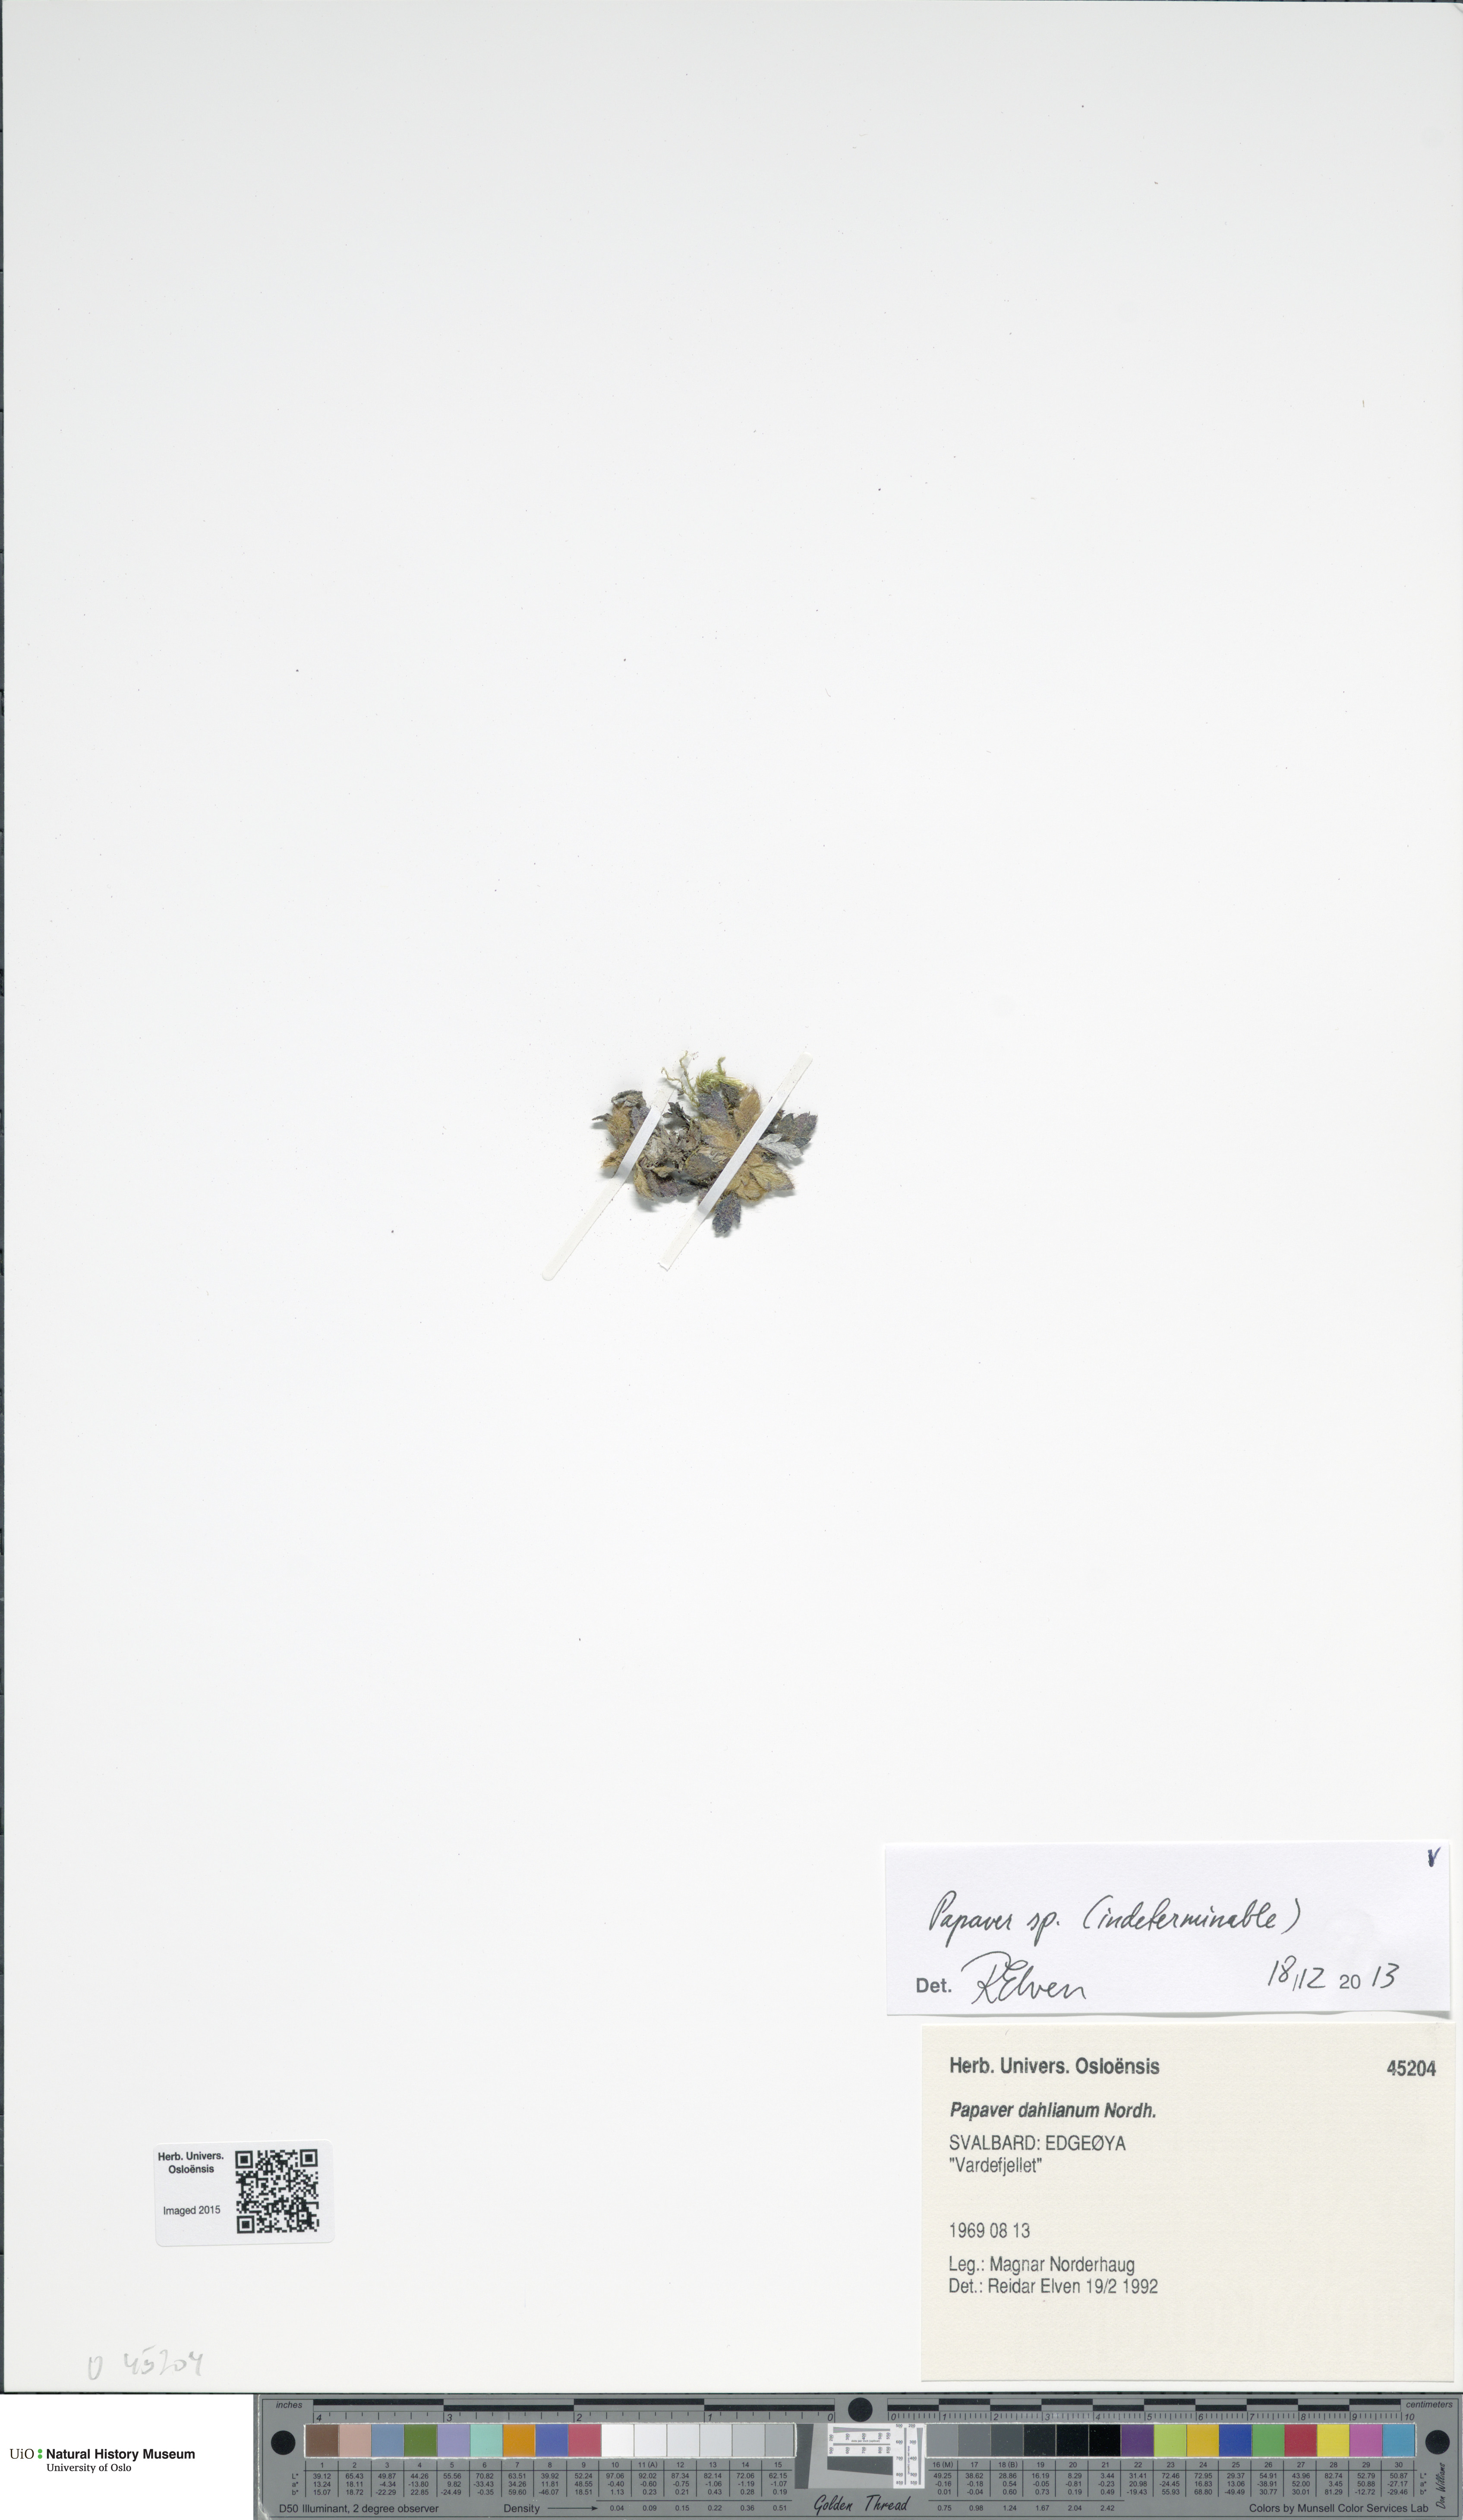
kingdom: Plantae
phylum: Tracheophyta
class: Magnoliopsida
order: Ranunculales
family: Papaveraceae
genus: Papaver
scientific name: Papaver
